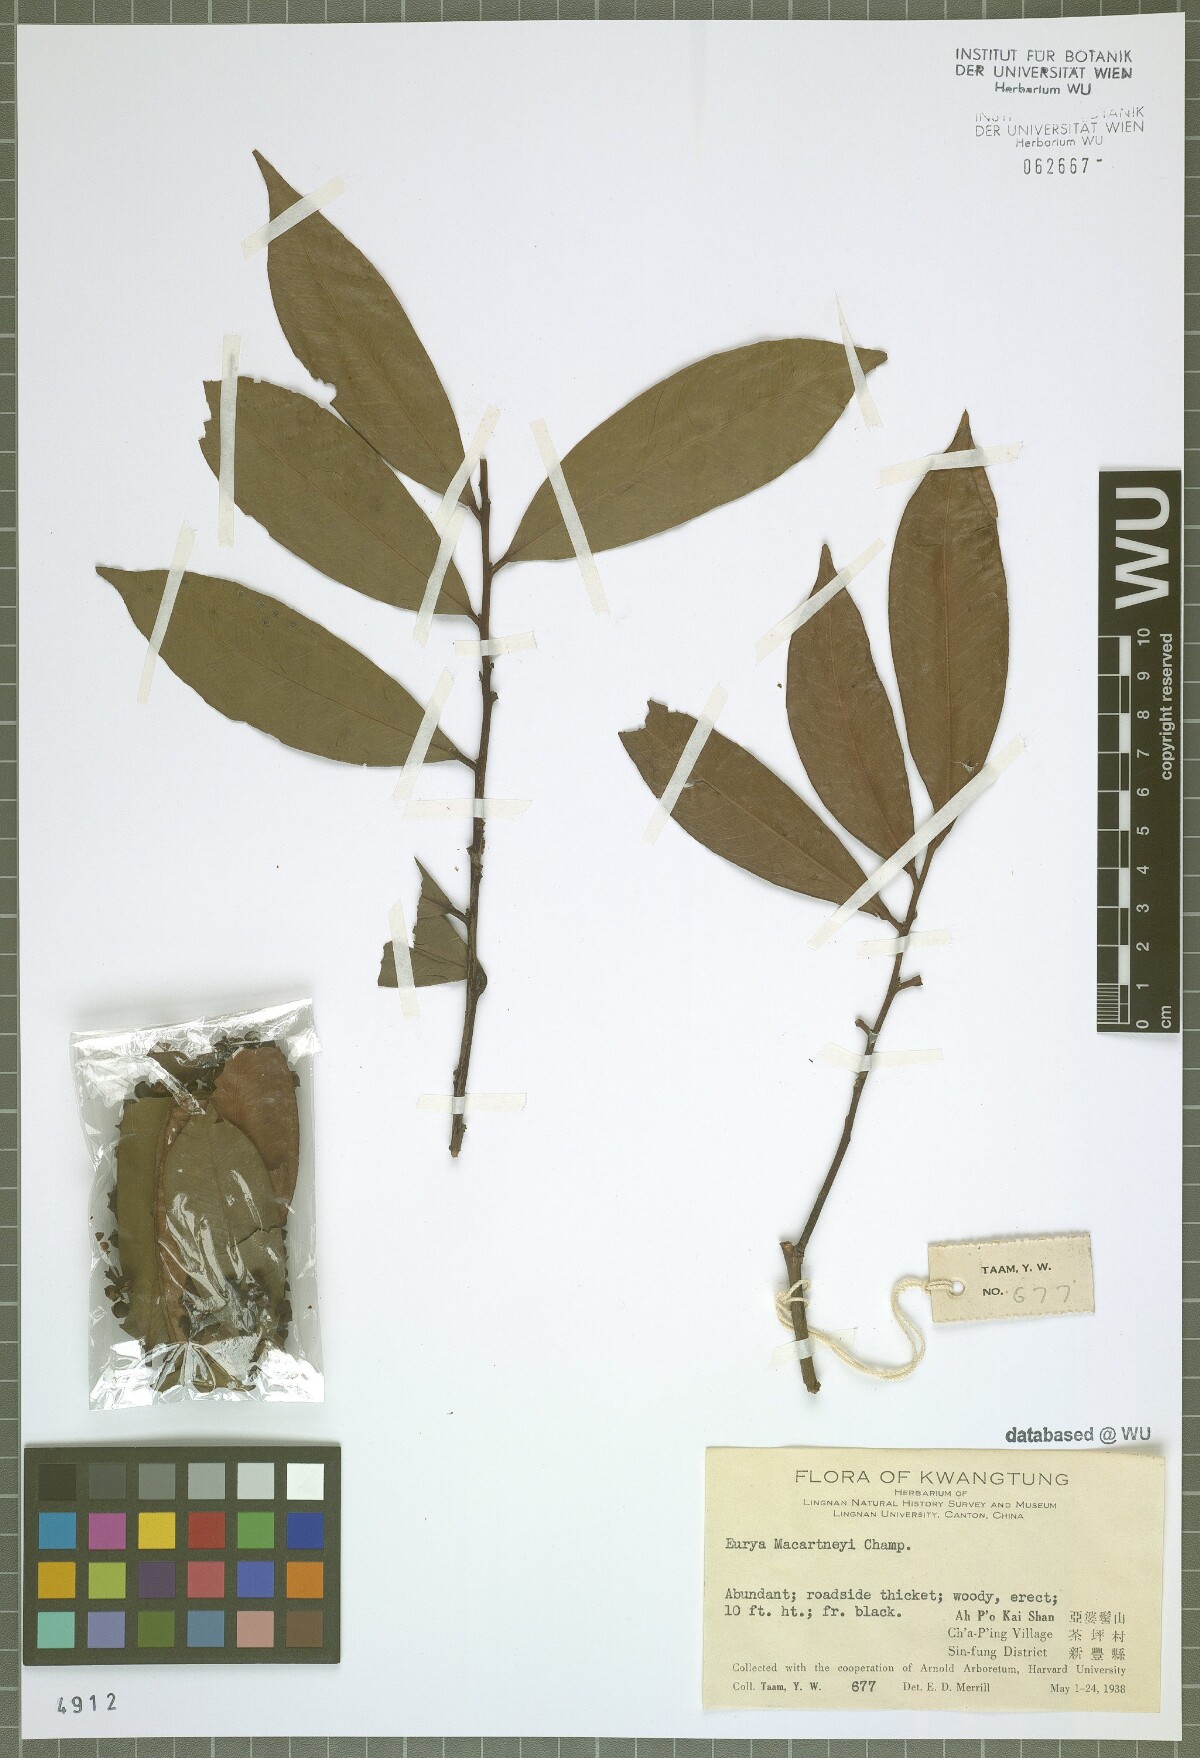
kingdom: Plantae
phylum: Tracheophyta
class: Magnoliopsida
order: Ericales
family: Pentaphylacaceae
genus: Eurya
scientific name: Eurya macartneyi
